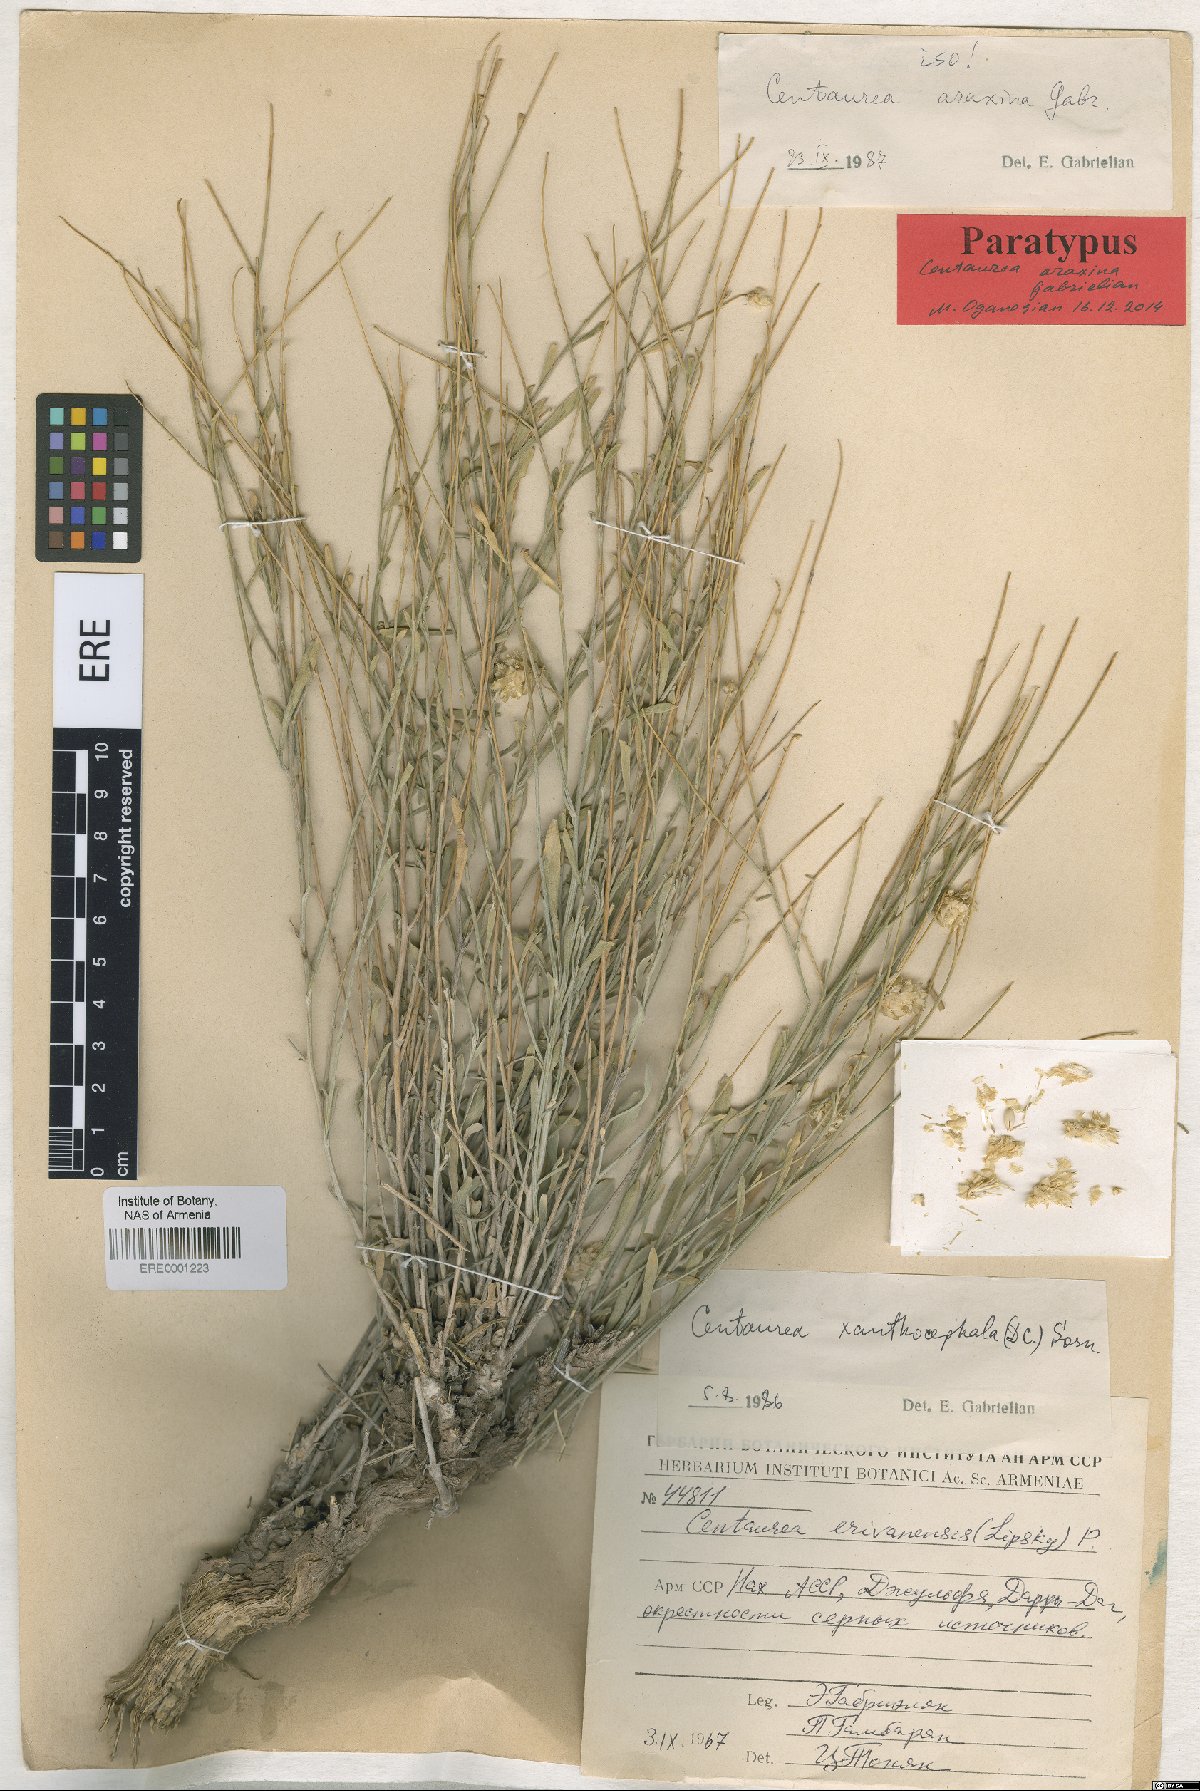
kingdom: Plantae
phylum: Tracheophyta
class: Magnoliopsida
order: Asterales
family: Asteraceae
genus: Psephellus
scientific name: Psephellus araxinus
